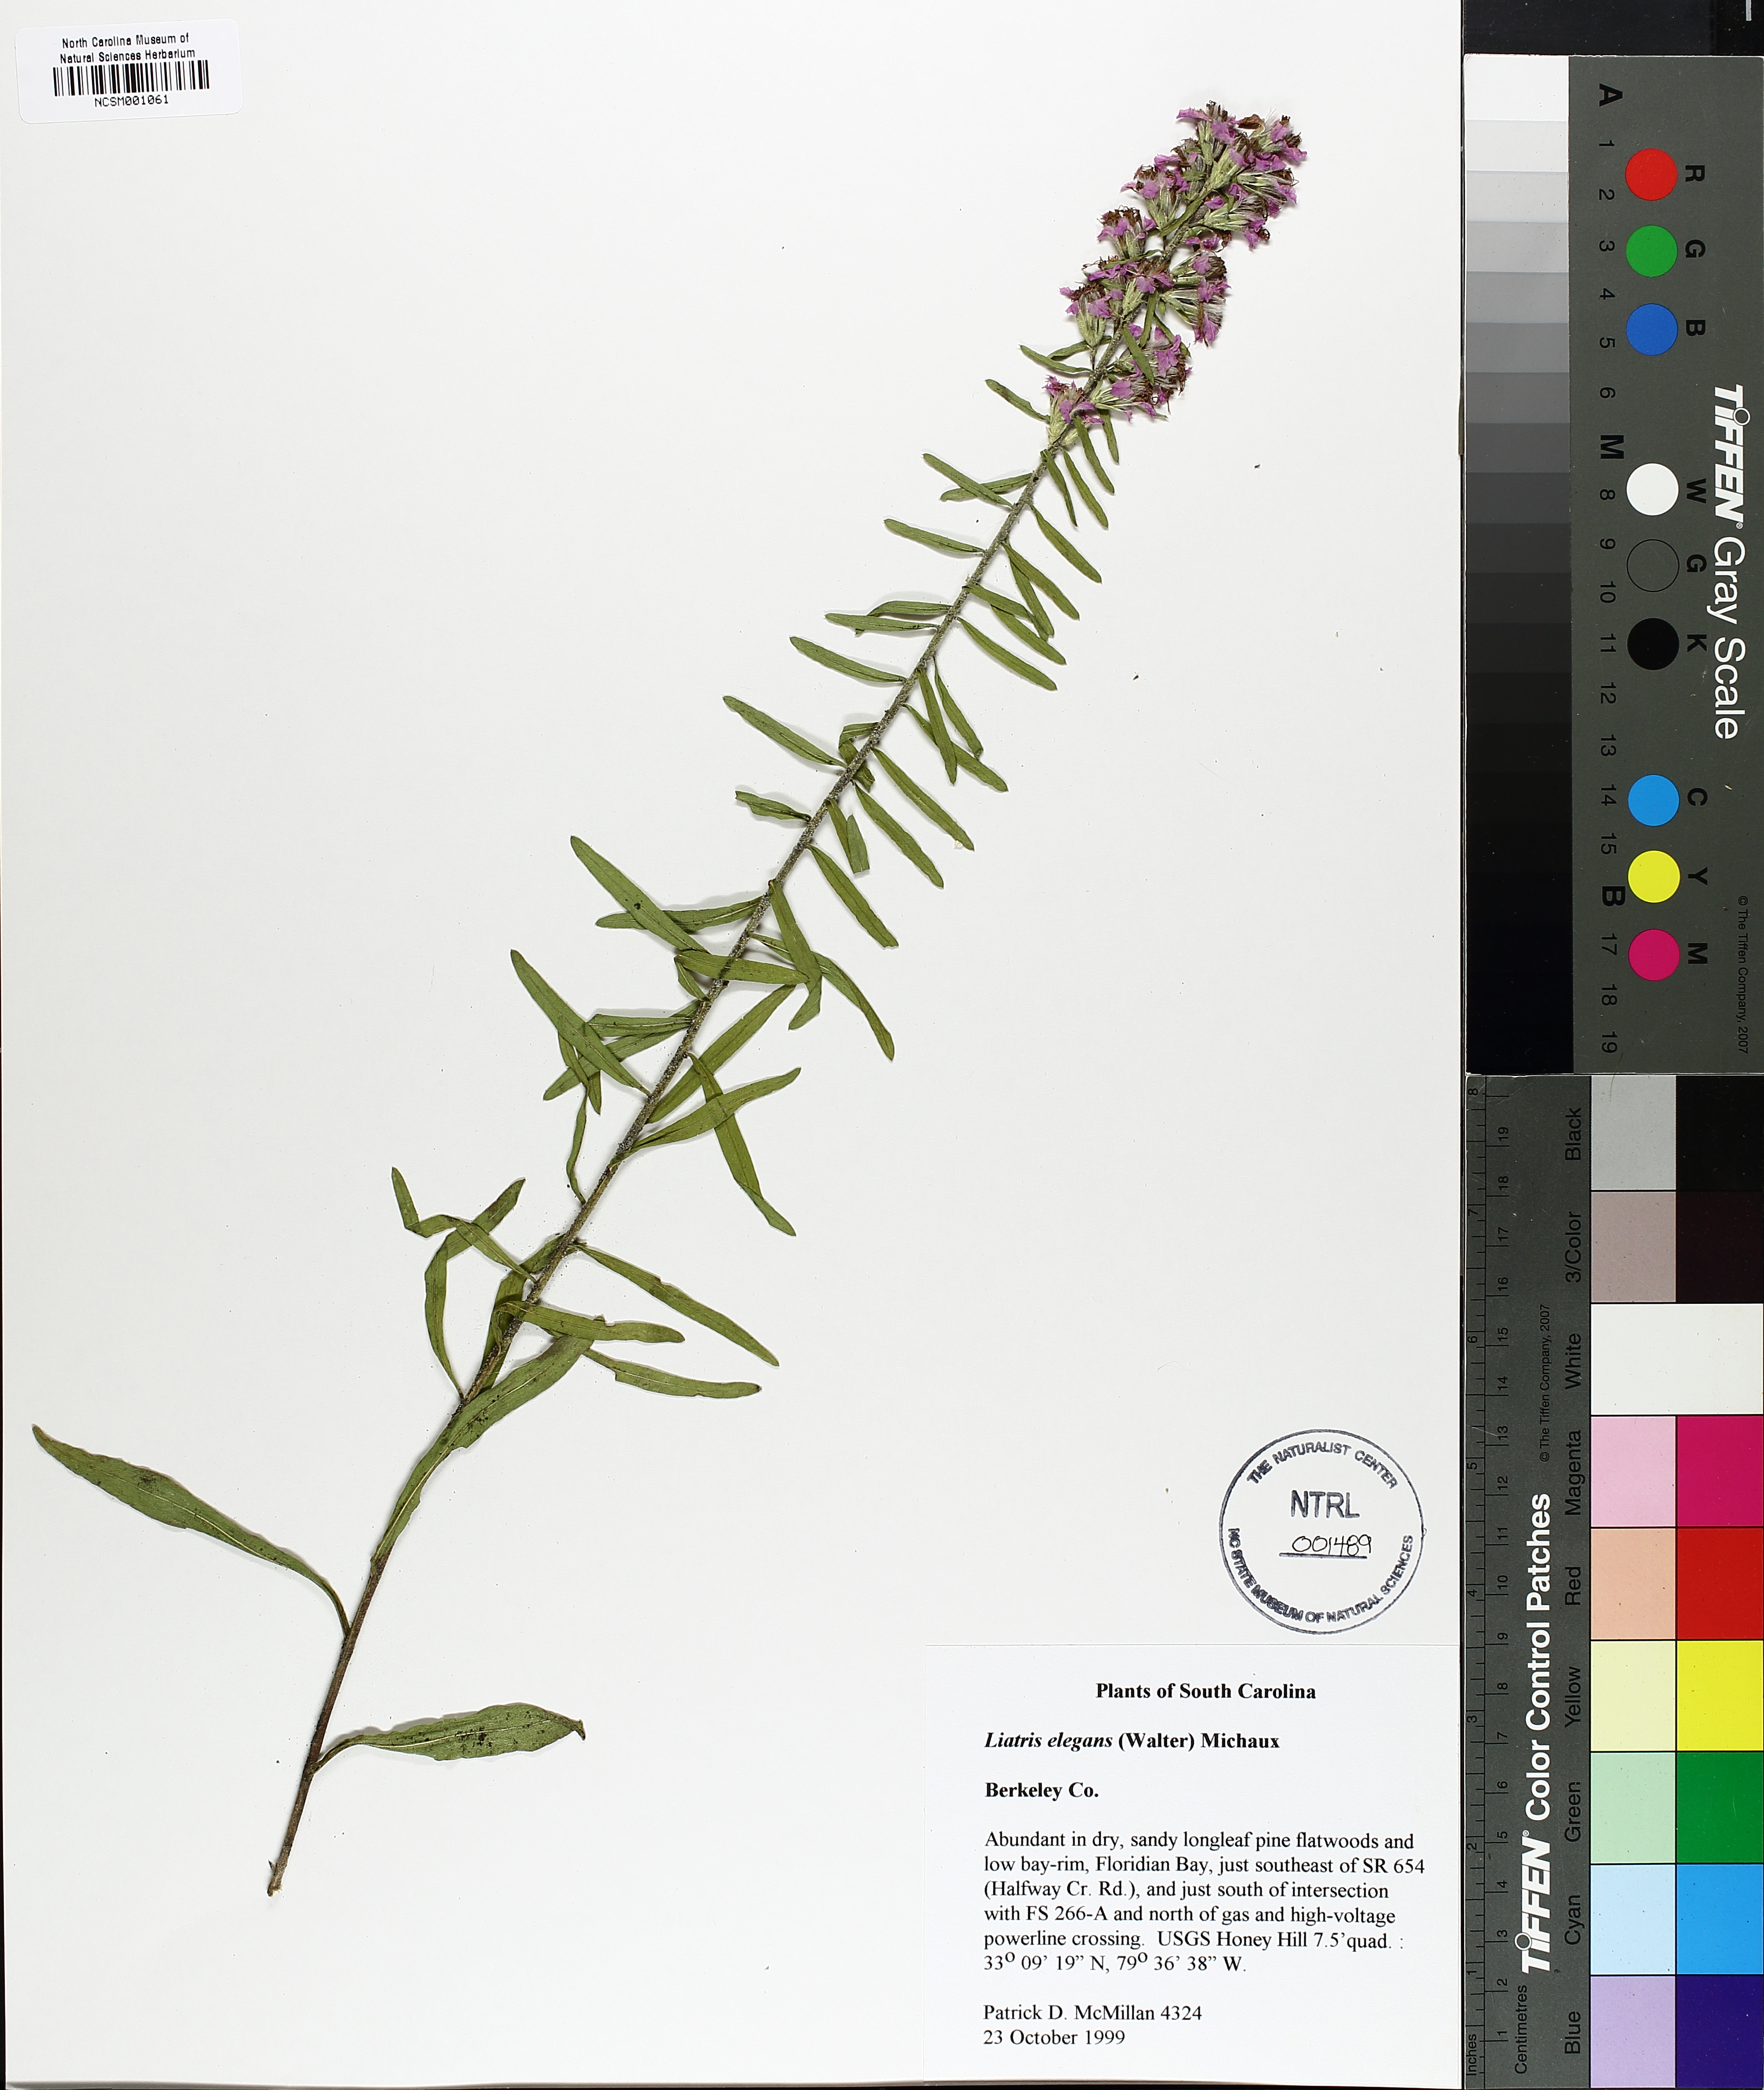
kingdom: Plantae
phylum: Tracheophyta
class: Magnoliopsida
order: Asterales
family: Asteraceae
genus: Liatris
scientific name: Liatris elegans
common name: Pinkscale gayfeather
